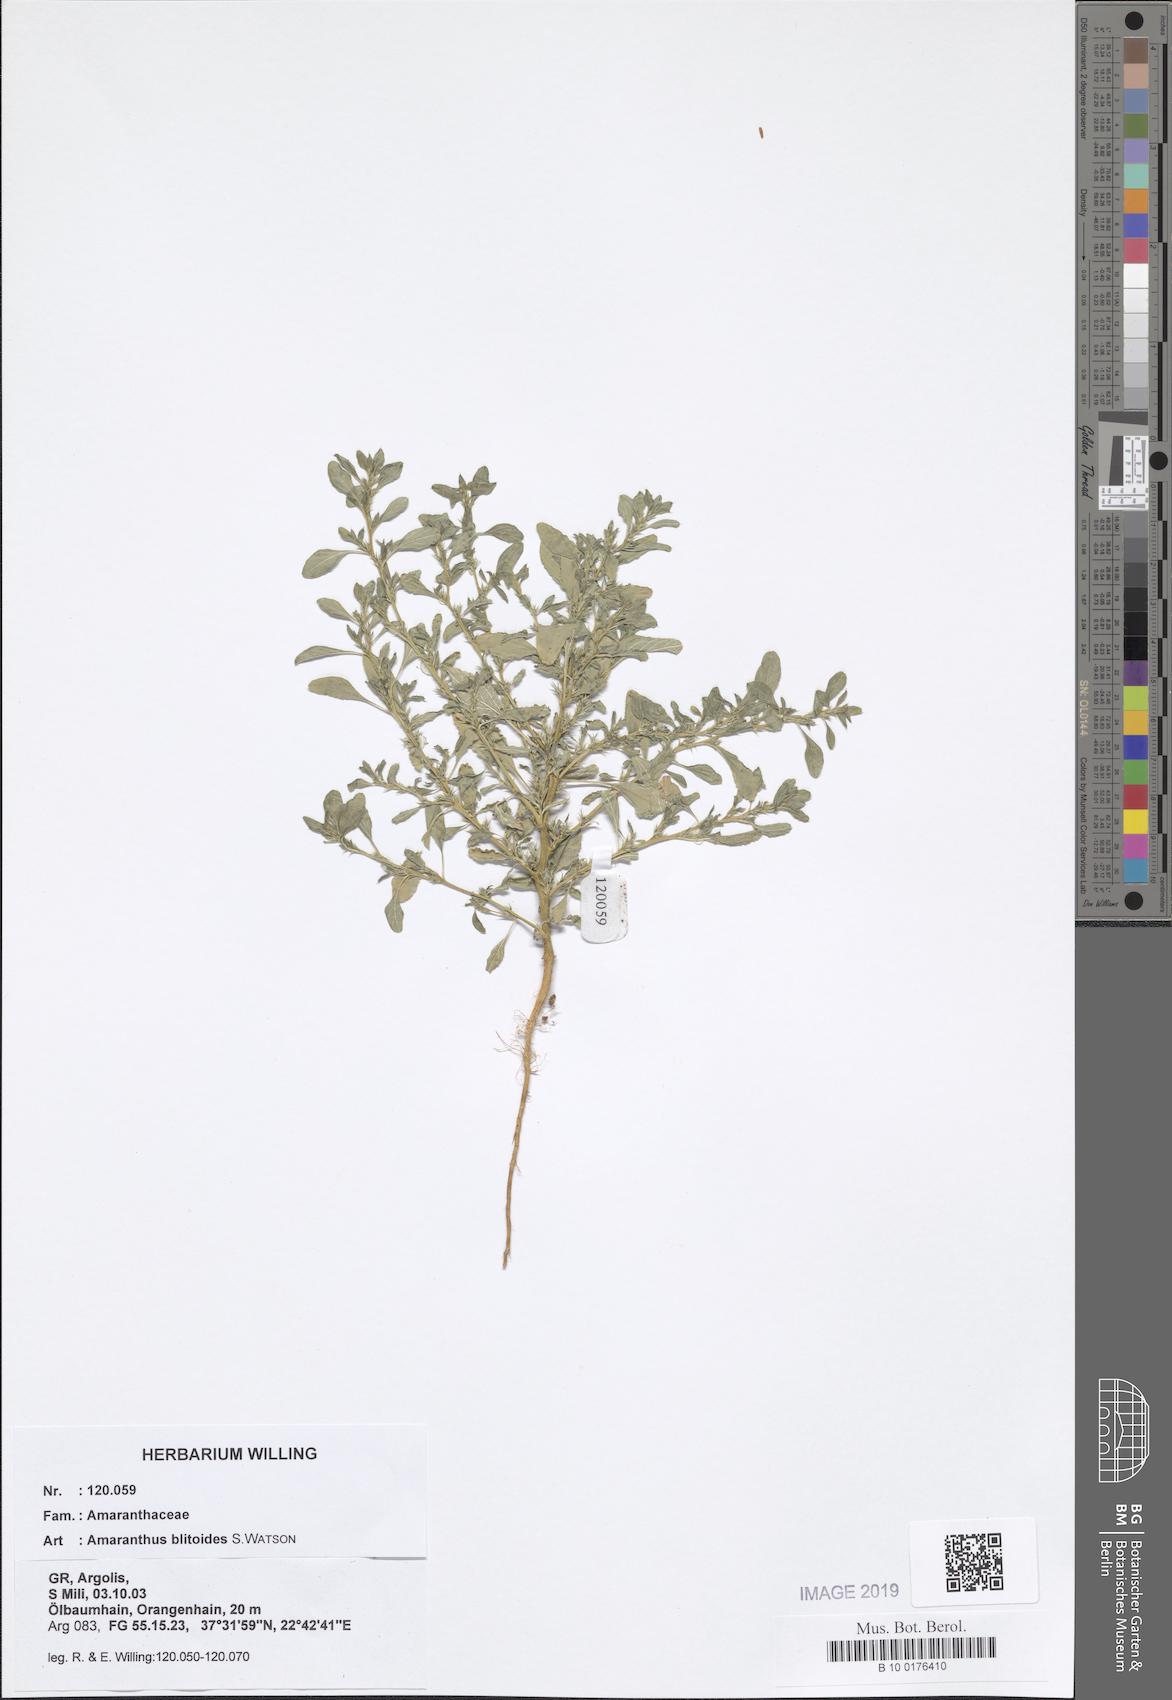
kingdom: Plantae
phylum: Tracheophyta
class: Magnoliopsida
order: Caryophyllales
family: Amaranthaceae
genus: Amaranthus
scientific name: Amaranthus blitoides
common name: Prostrate pigweed
